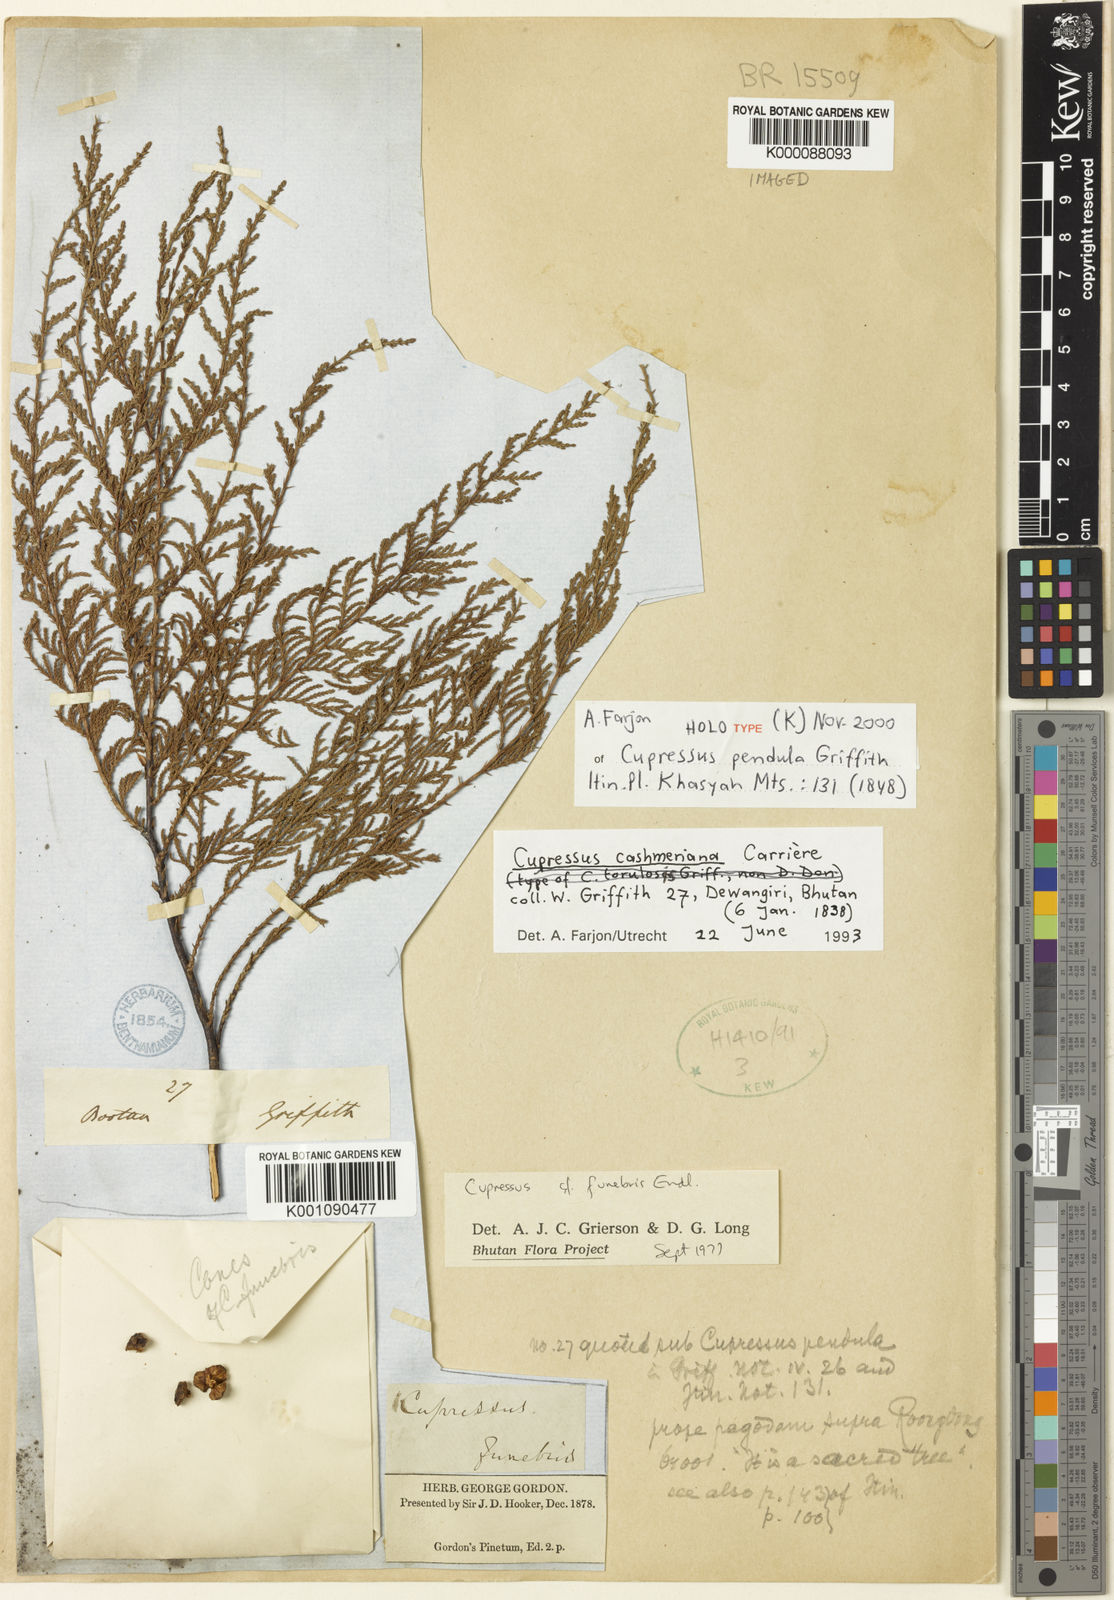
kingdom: Plantae
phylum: Tracheophyta
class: Pinopsida
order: Pinales
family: Cupressaceae
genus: Cupressus
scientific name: Cupressus
